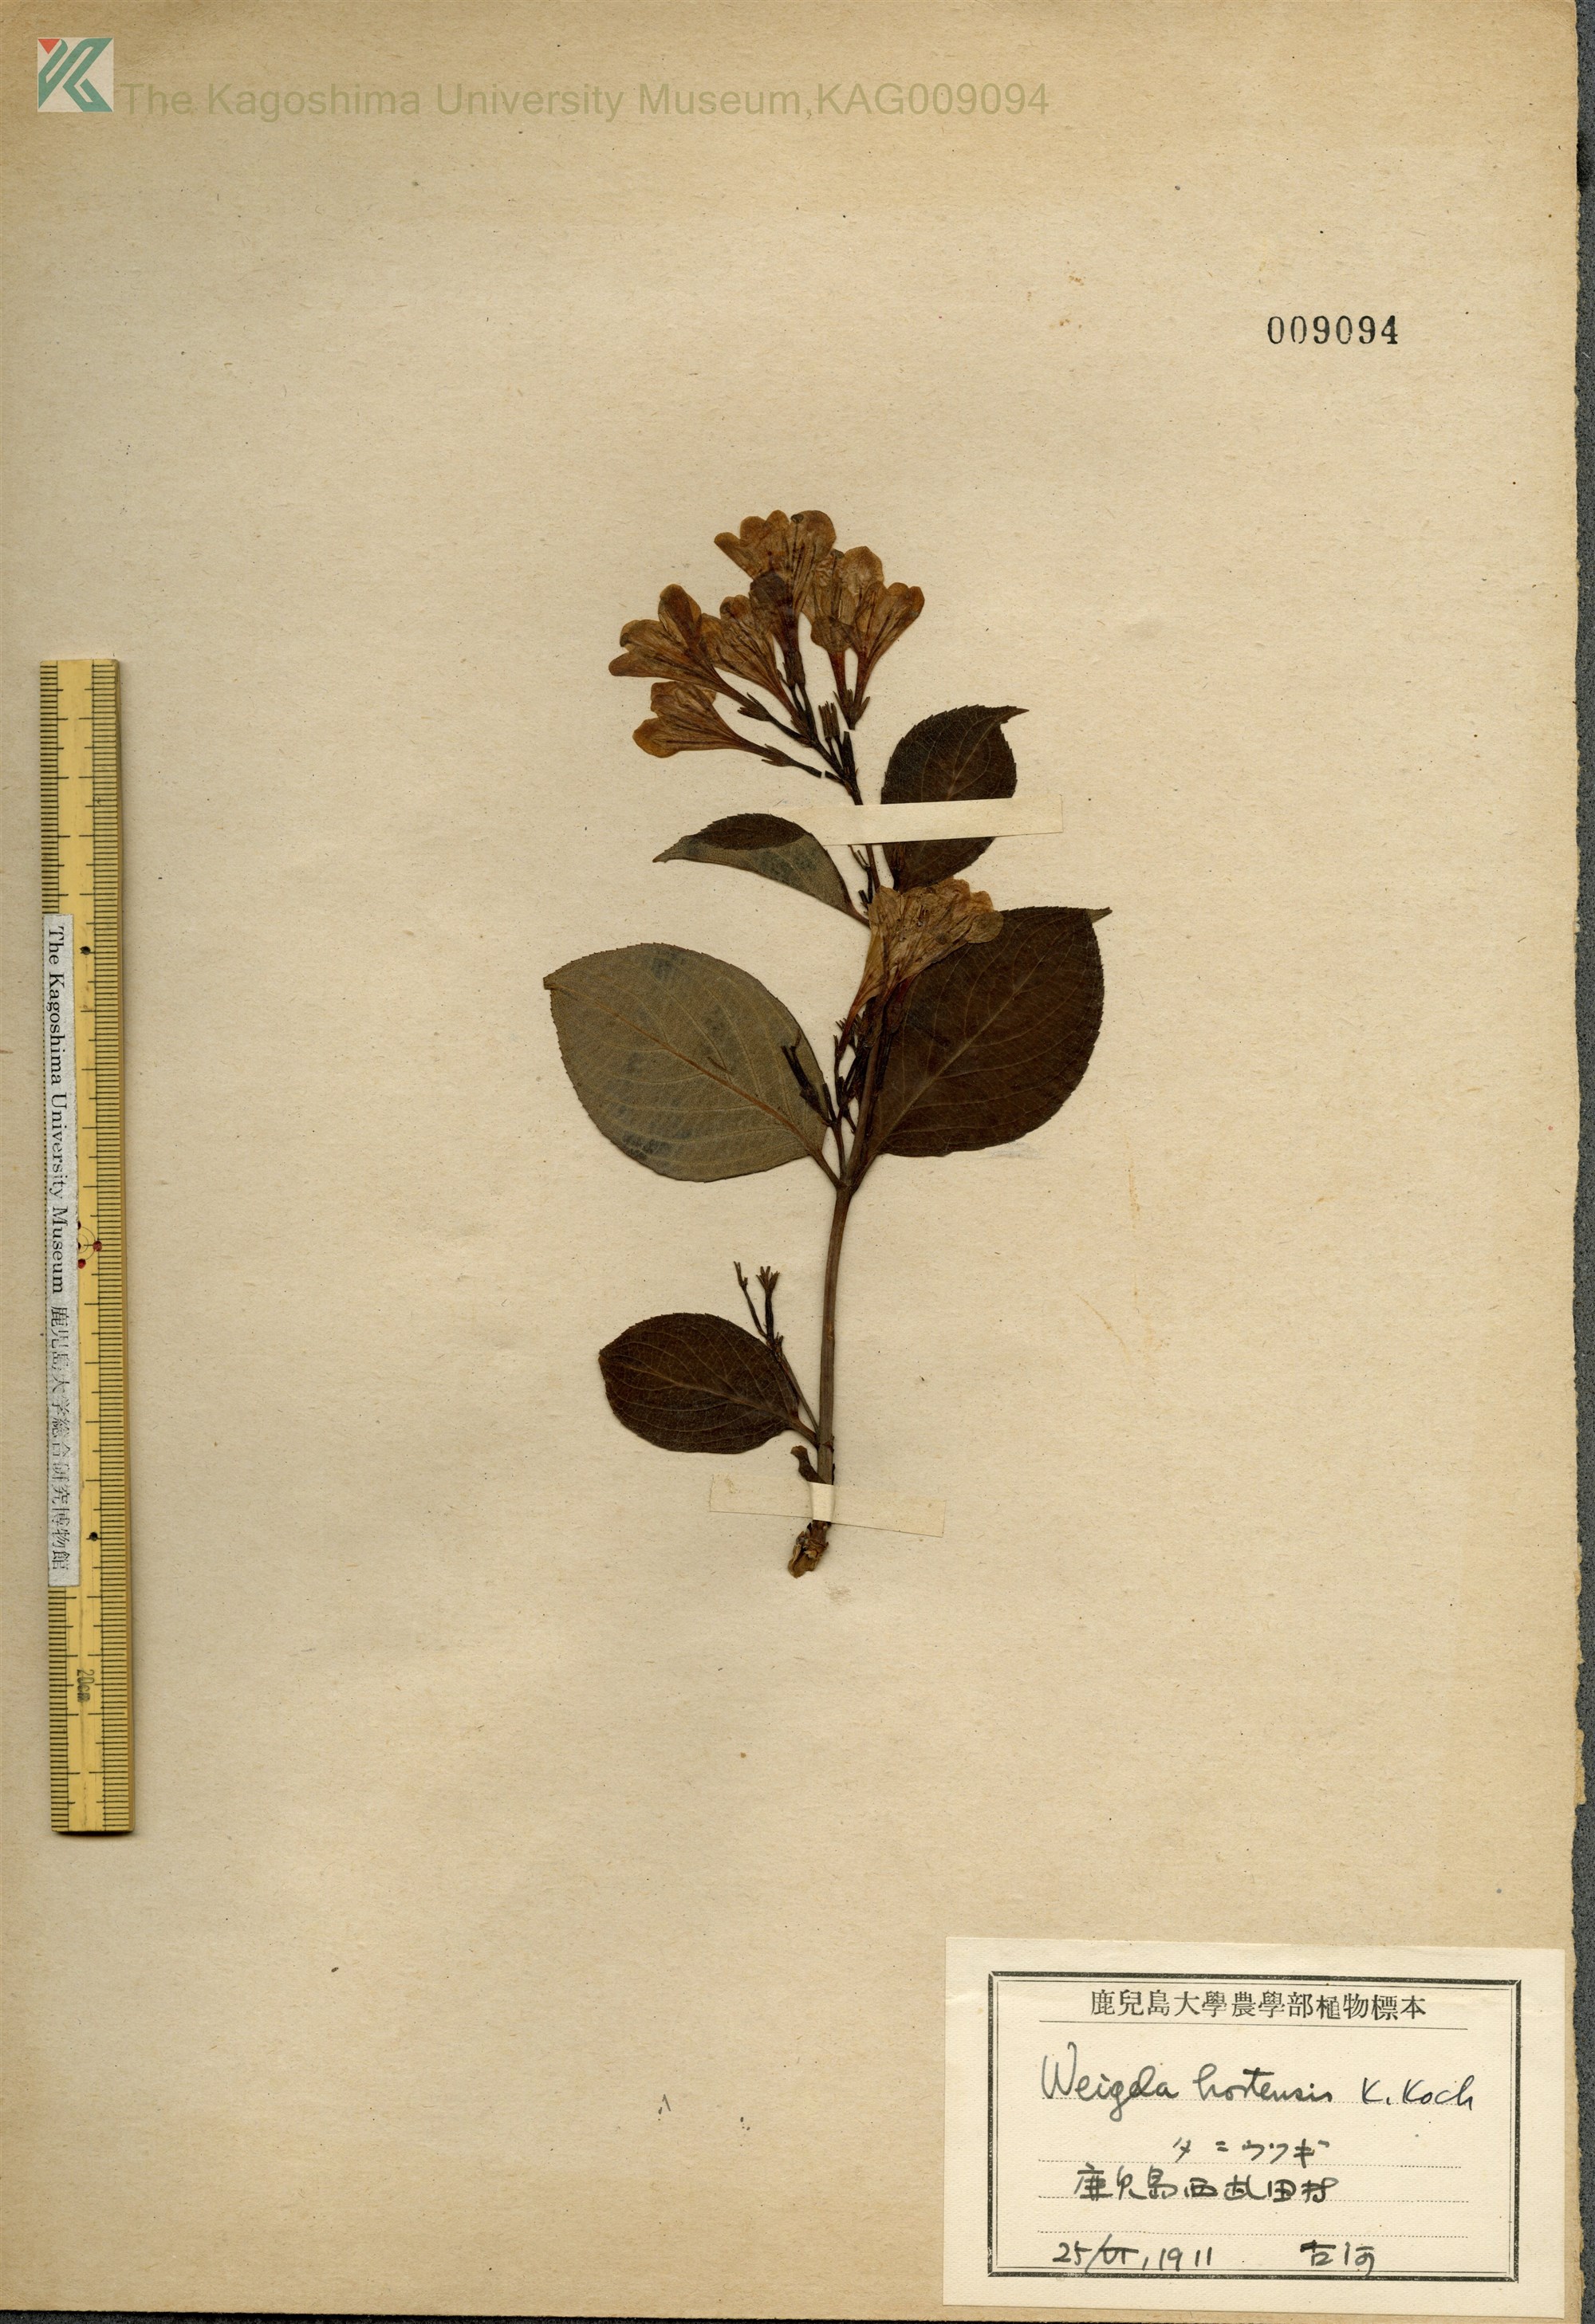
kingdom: Plantae
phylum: Tracheophyta
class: Magnoliopsida
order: Dipsacales
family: Caprifoliaceae
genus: Weigela
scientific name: Weigela hortensis
